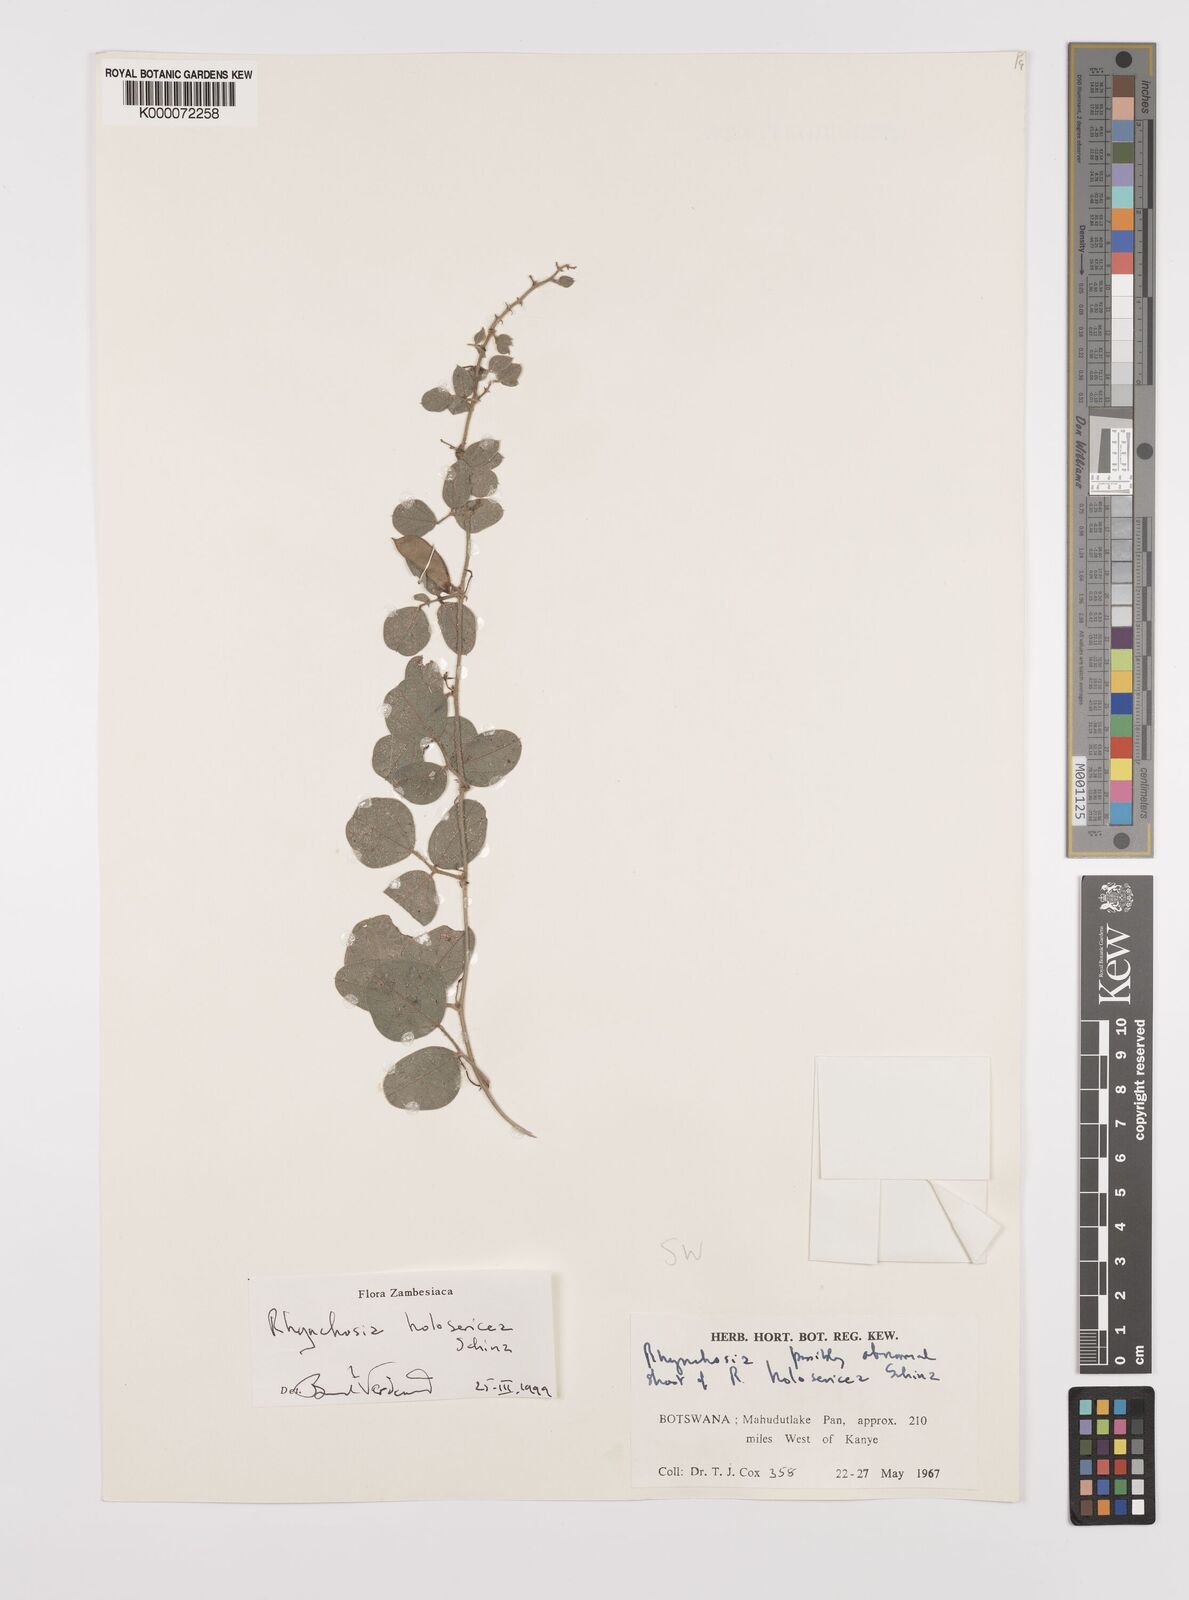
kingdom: Plantae
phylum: Tracheophyta
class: Magnoliopsida
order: Fabales
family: Fabaceae
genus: Rhynchosia
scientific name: Rhynchosia holosericea
